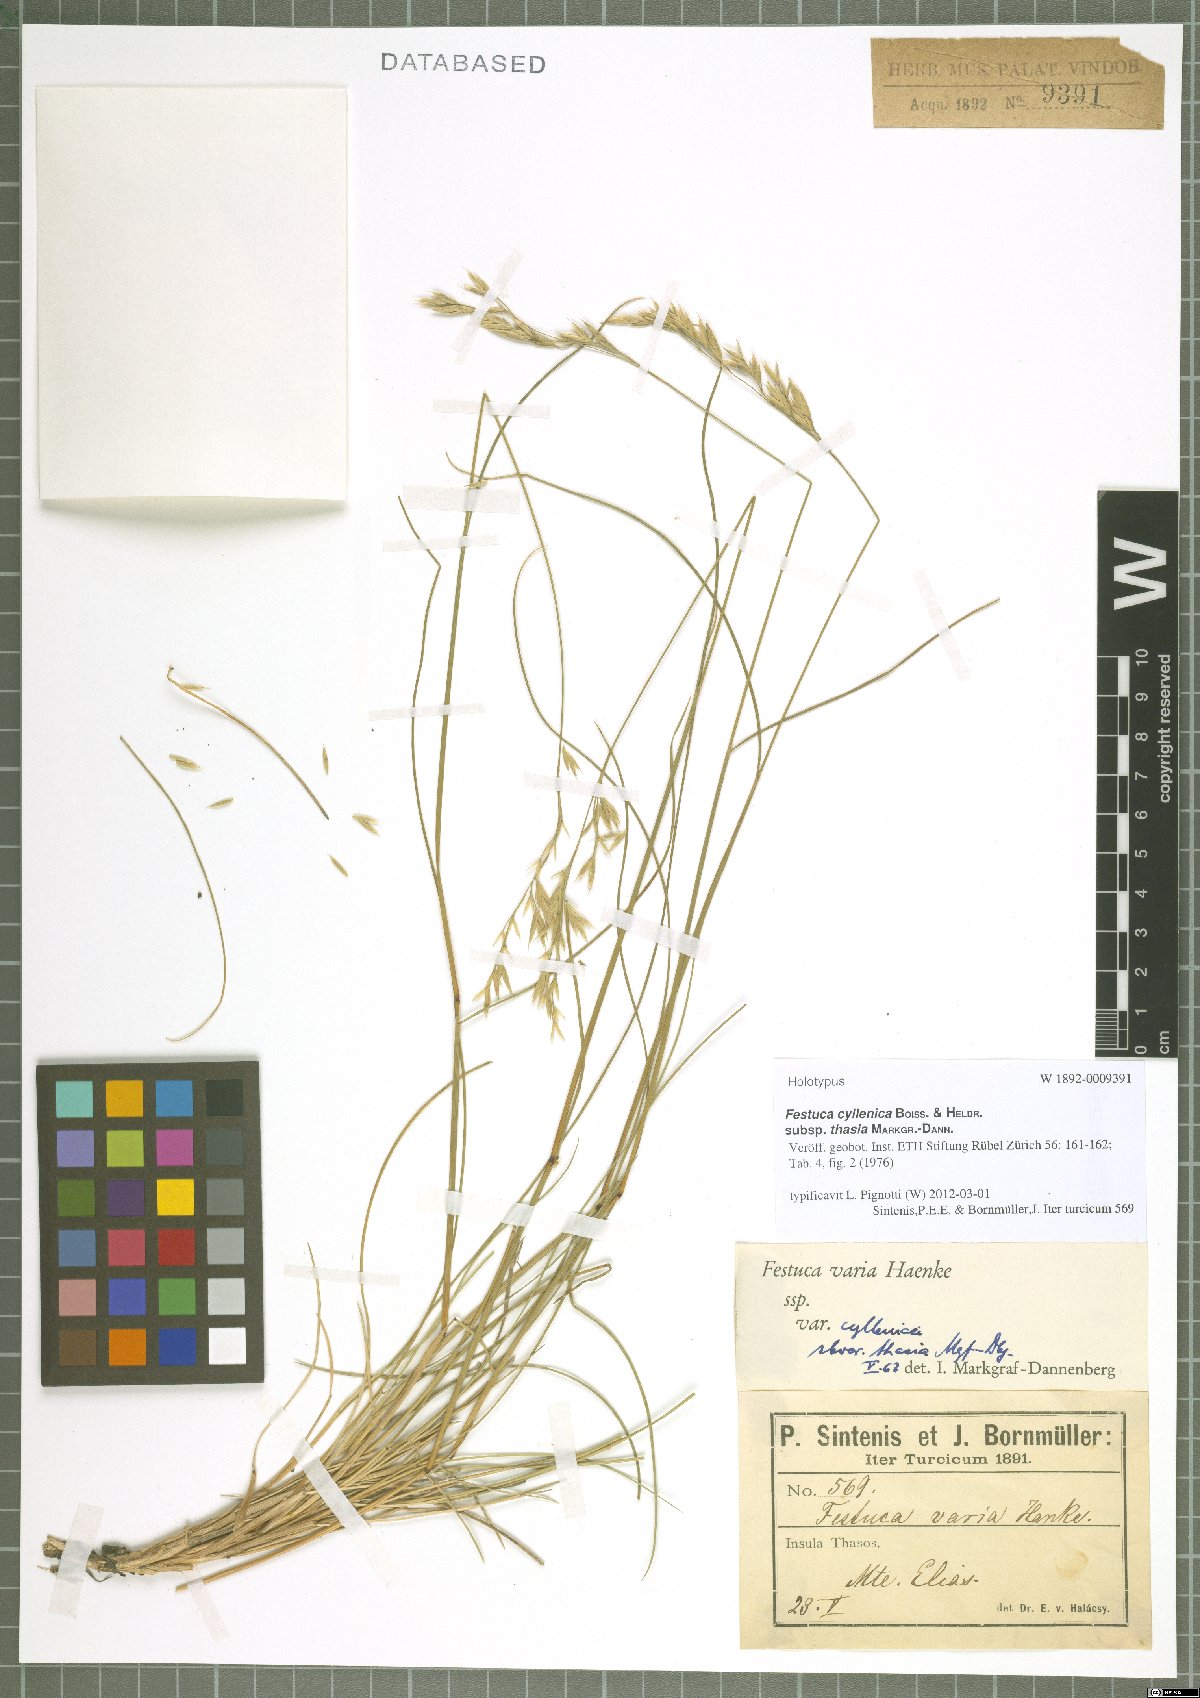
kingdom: Plantae
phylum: Tracheophyta
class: Liliopsida
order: Poales
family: Poaceae
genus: Festuca
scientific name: Festuca cyllenica
